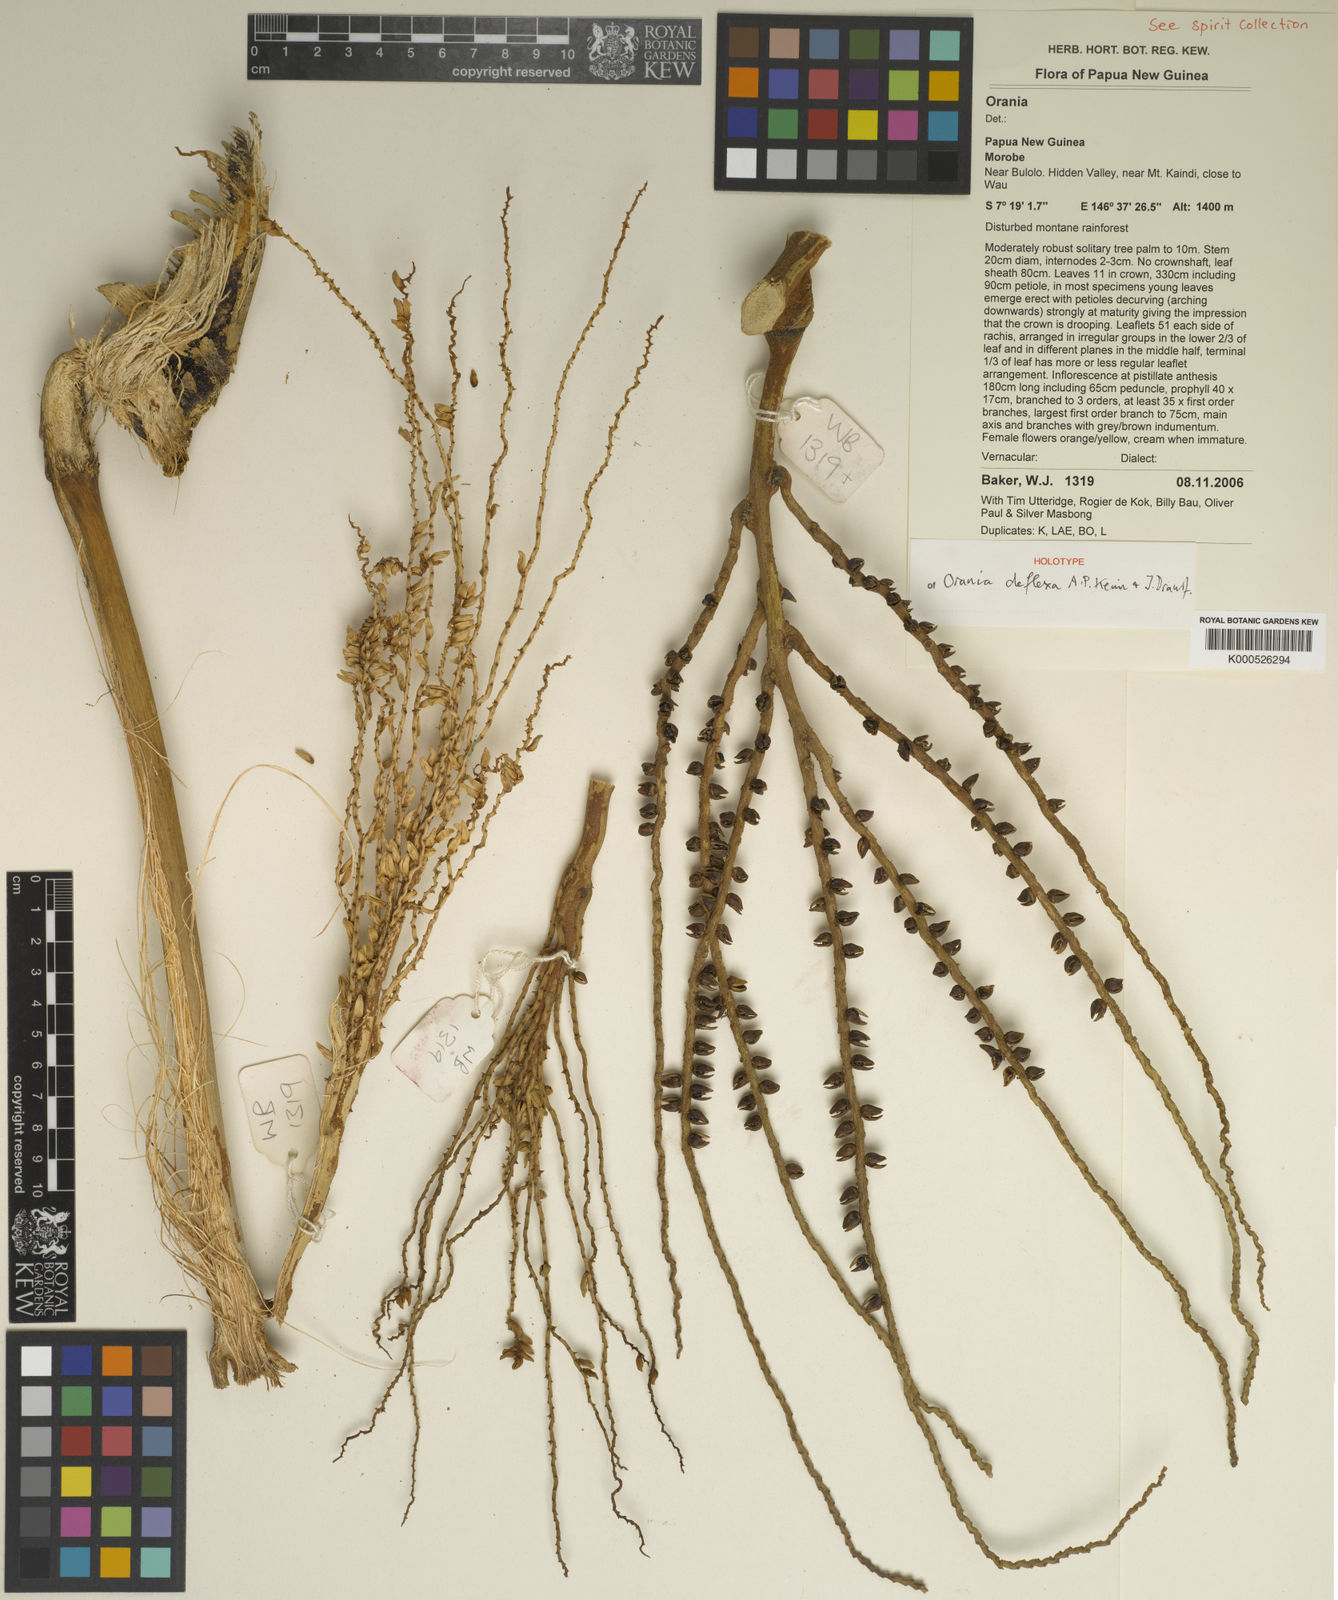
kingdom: Plantae
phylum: Tracheophyta
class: Liliopsida
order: Arecales
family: Arecaceae
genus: Orania
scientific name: Orania deflexa
